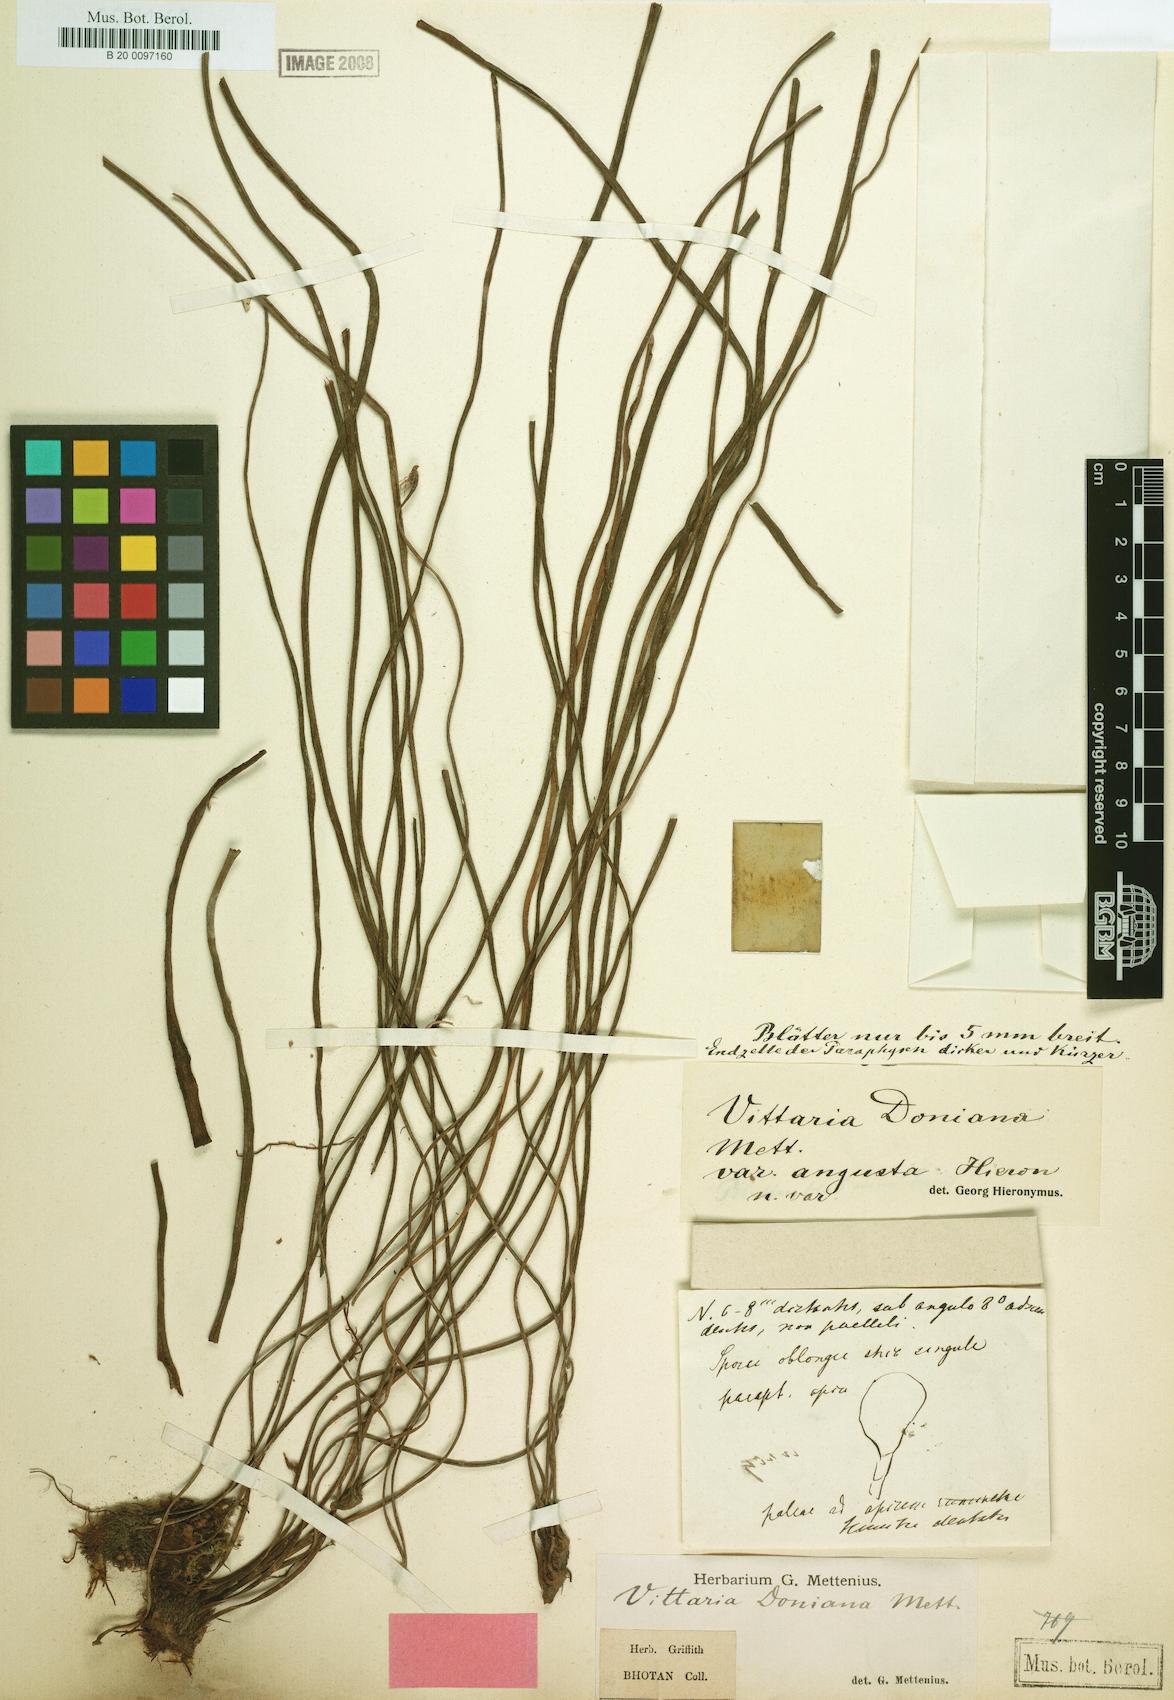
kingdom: Plantae
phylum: Tracheophyta
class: Polypodiopsida
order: Polypodiales
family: Pteridaceae
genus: Haplopteris
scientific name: Haplopteris linearifolia
